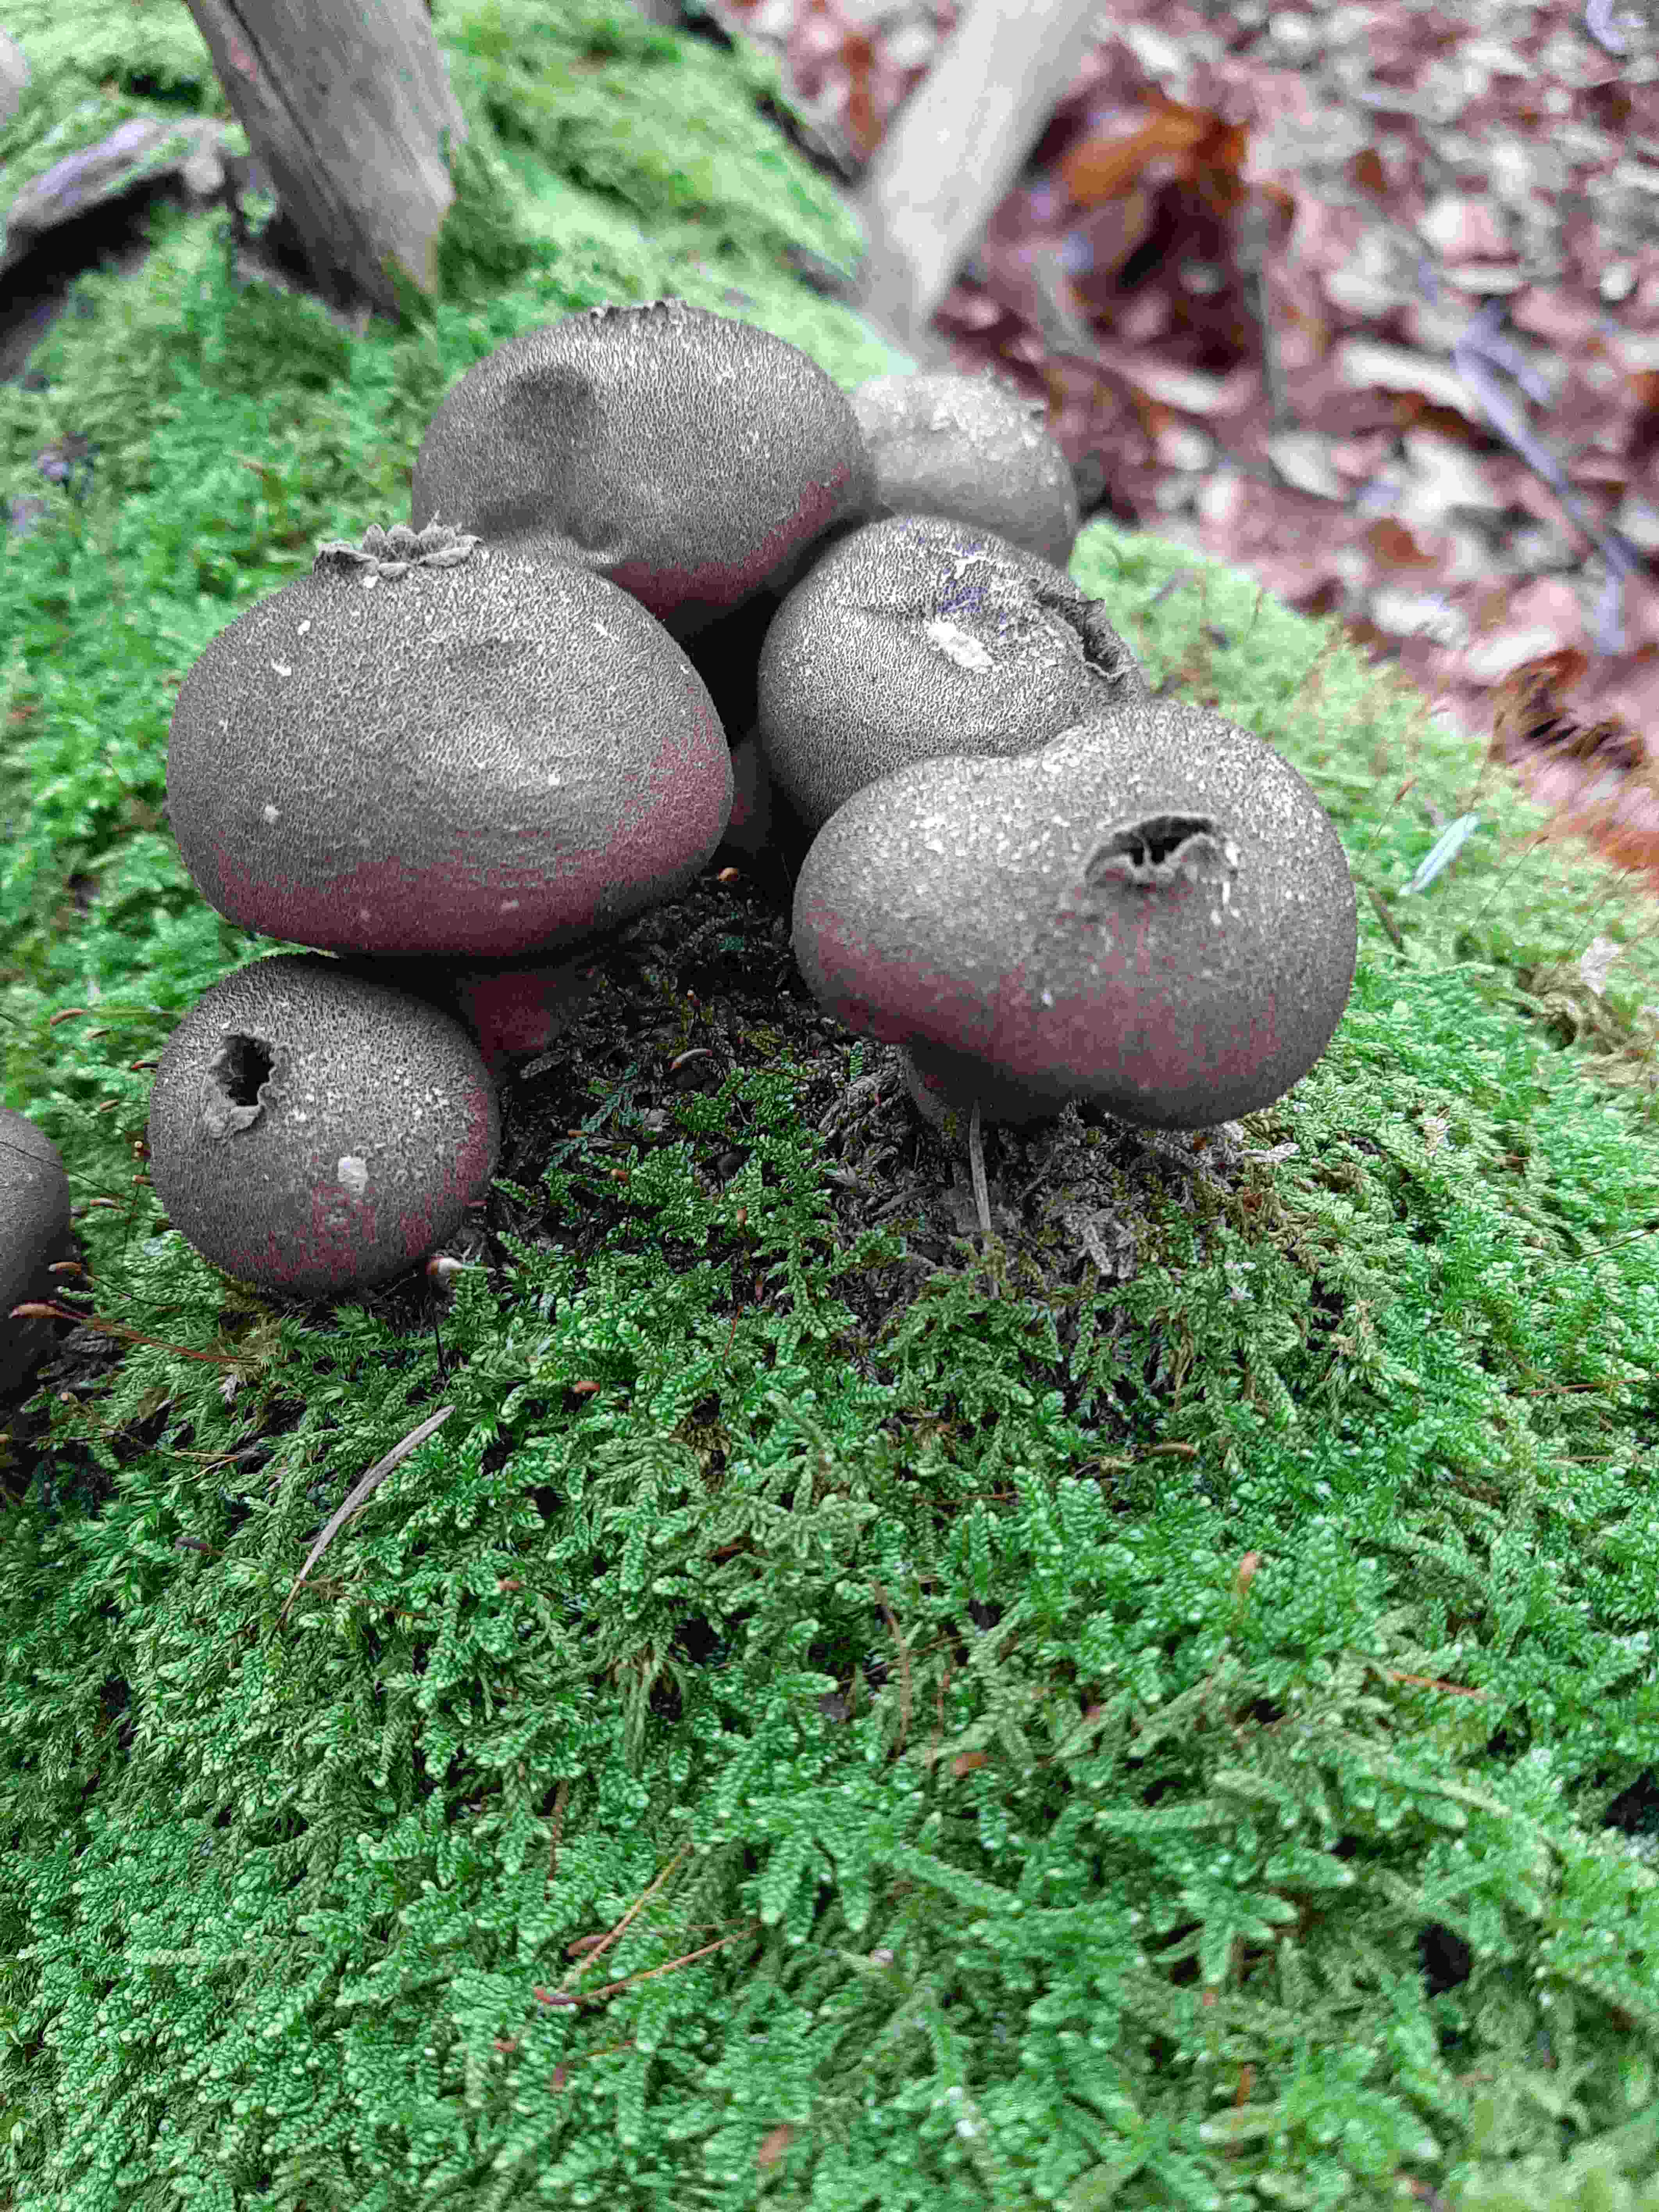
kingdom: Fungi
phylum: Basidiomycota
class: Agaricomycetes
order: Agaricales
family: Lycoperdaceae
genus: Apioperdon
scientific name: Apioperdon pyriforme
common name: pære-støvbold
